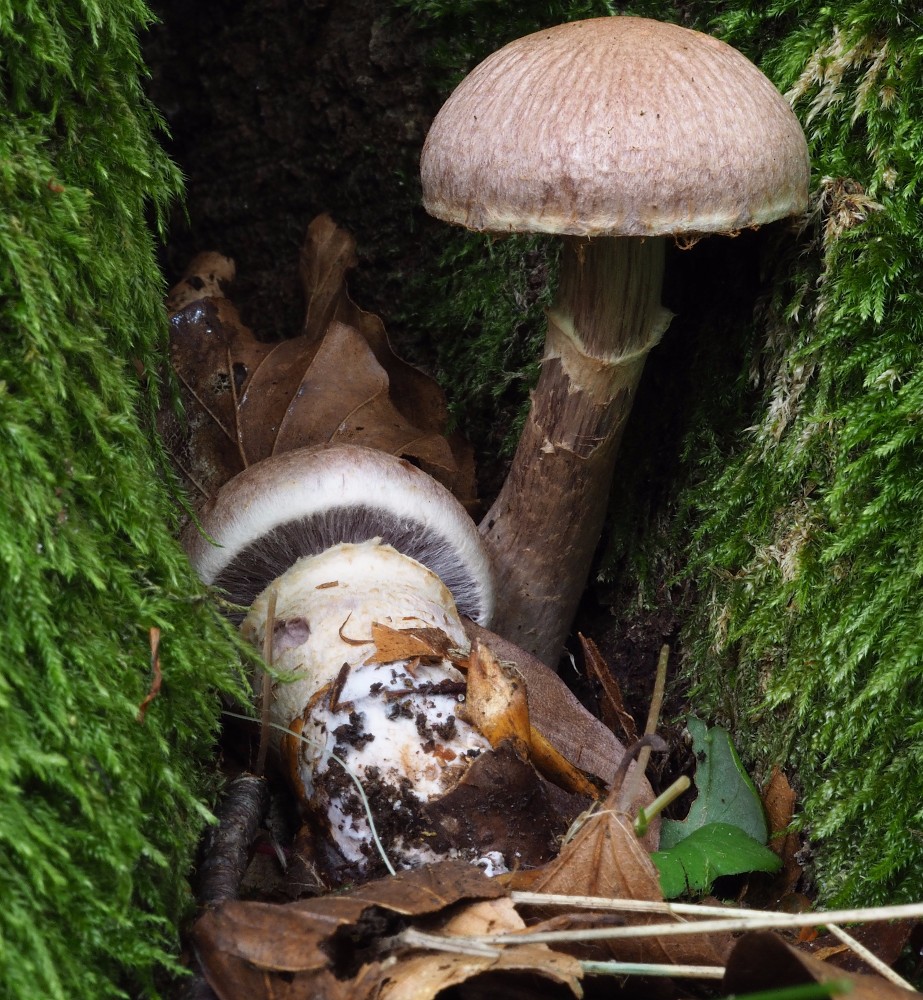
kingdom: Fungi
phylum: Basidiomycota
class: Agaricomycetes
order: Agaricales
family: Cortinariaceae
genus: Cortinarius
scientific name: Cortinarius torvus
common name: champignonagtig slørhat
